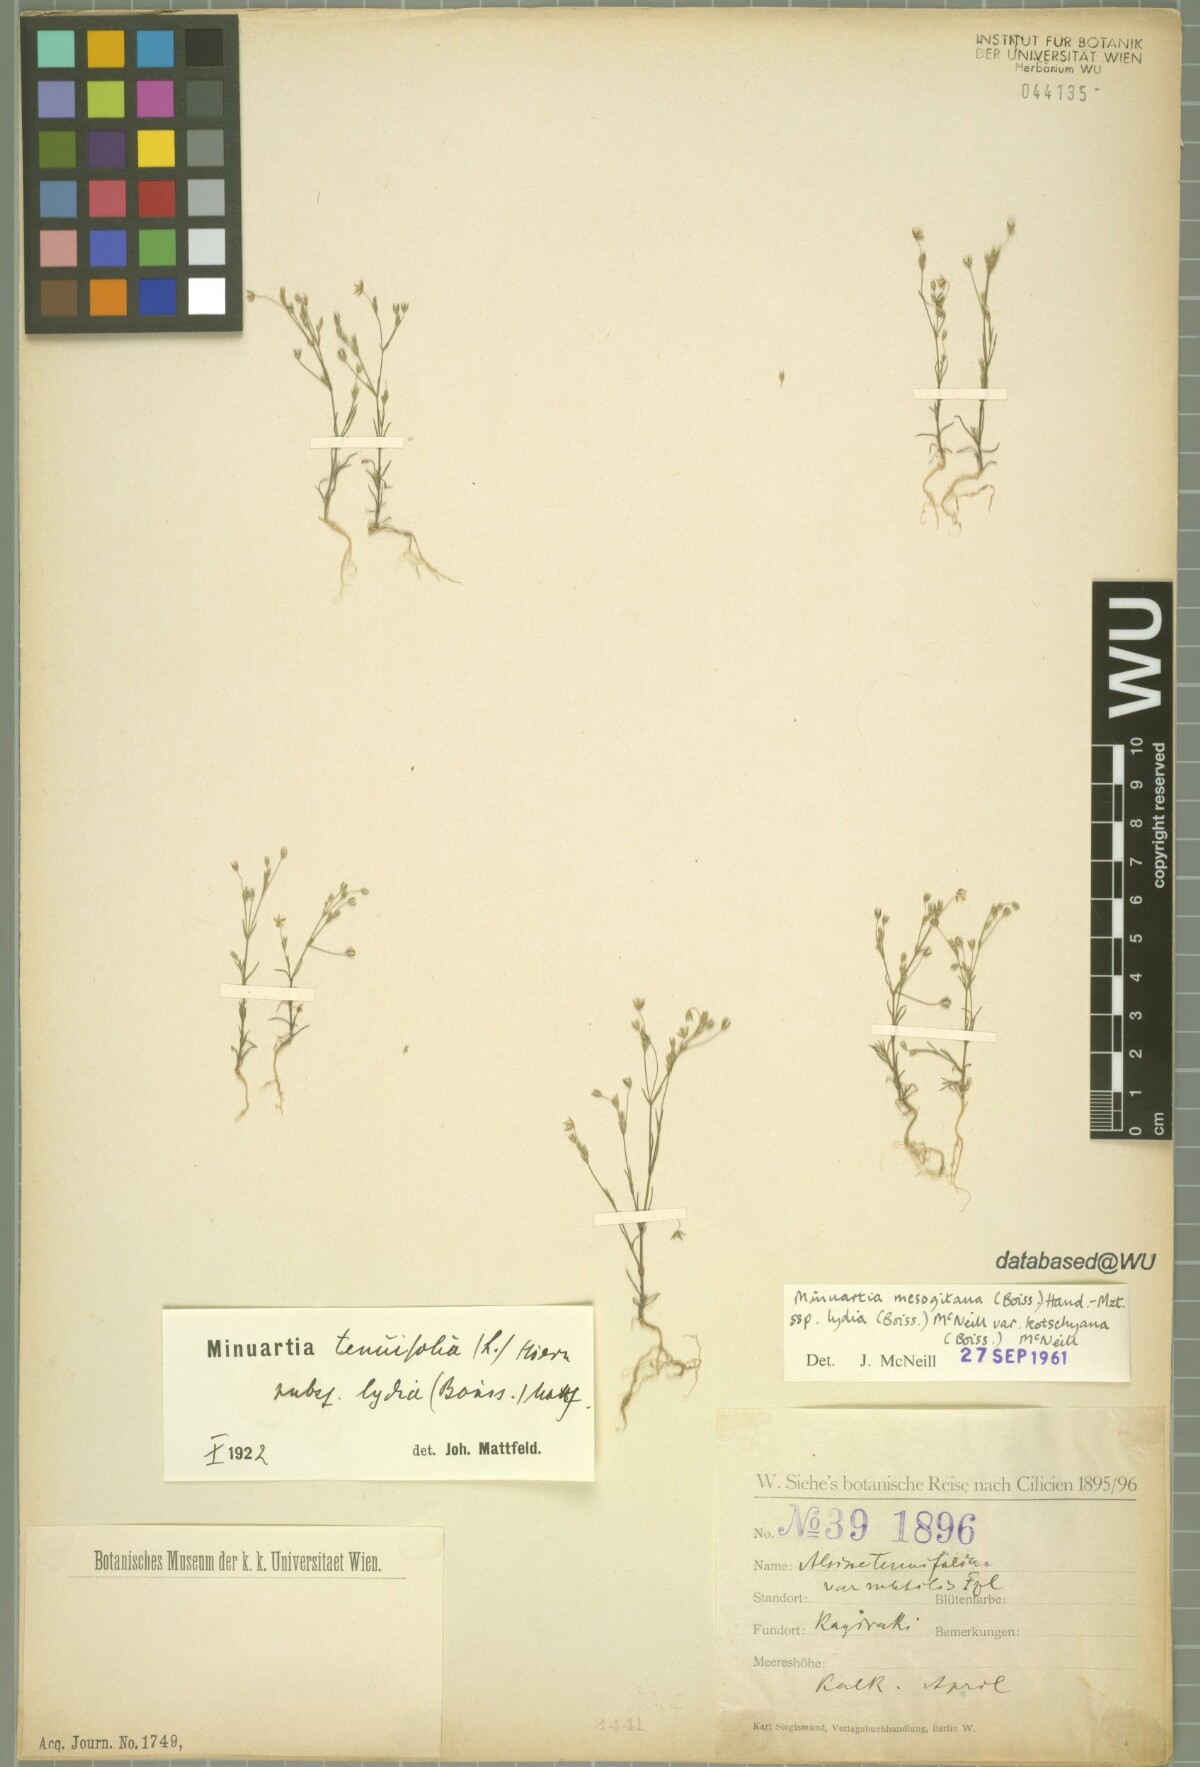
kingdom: Plantae
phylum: Tracheophyta
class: Magnoliopsida
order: Caryophyllales
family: Caryophyllaceae
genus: Sabulina
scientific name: Sabulina mesogitana
